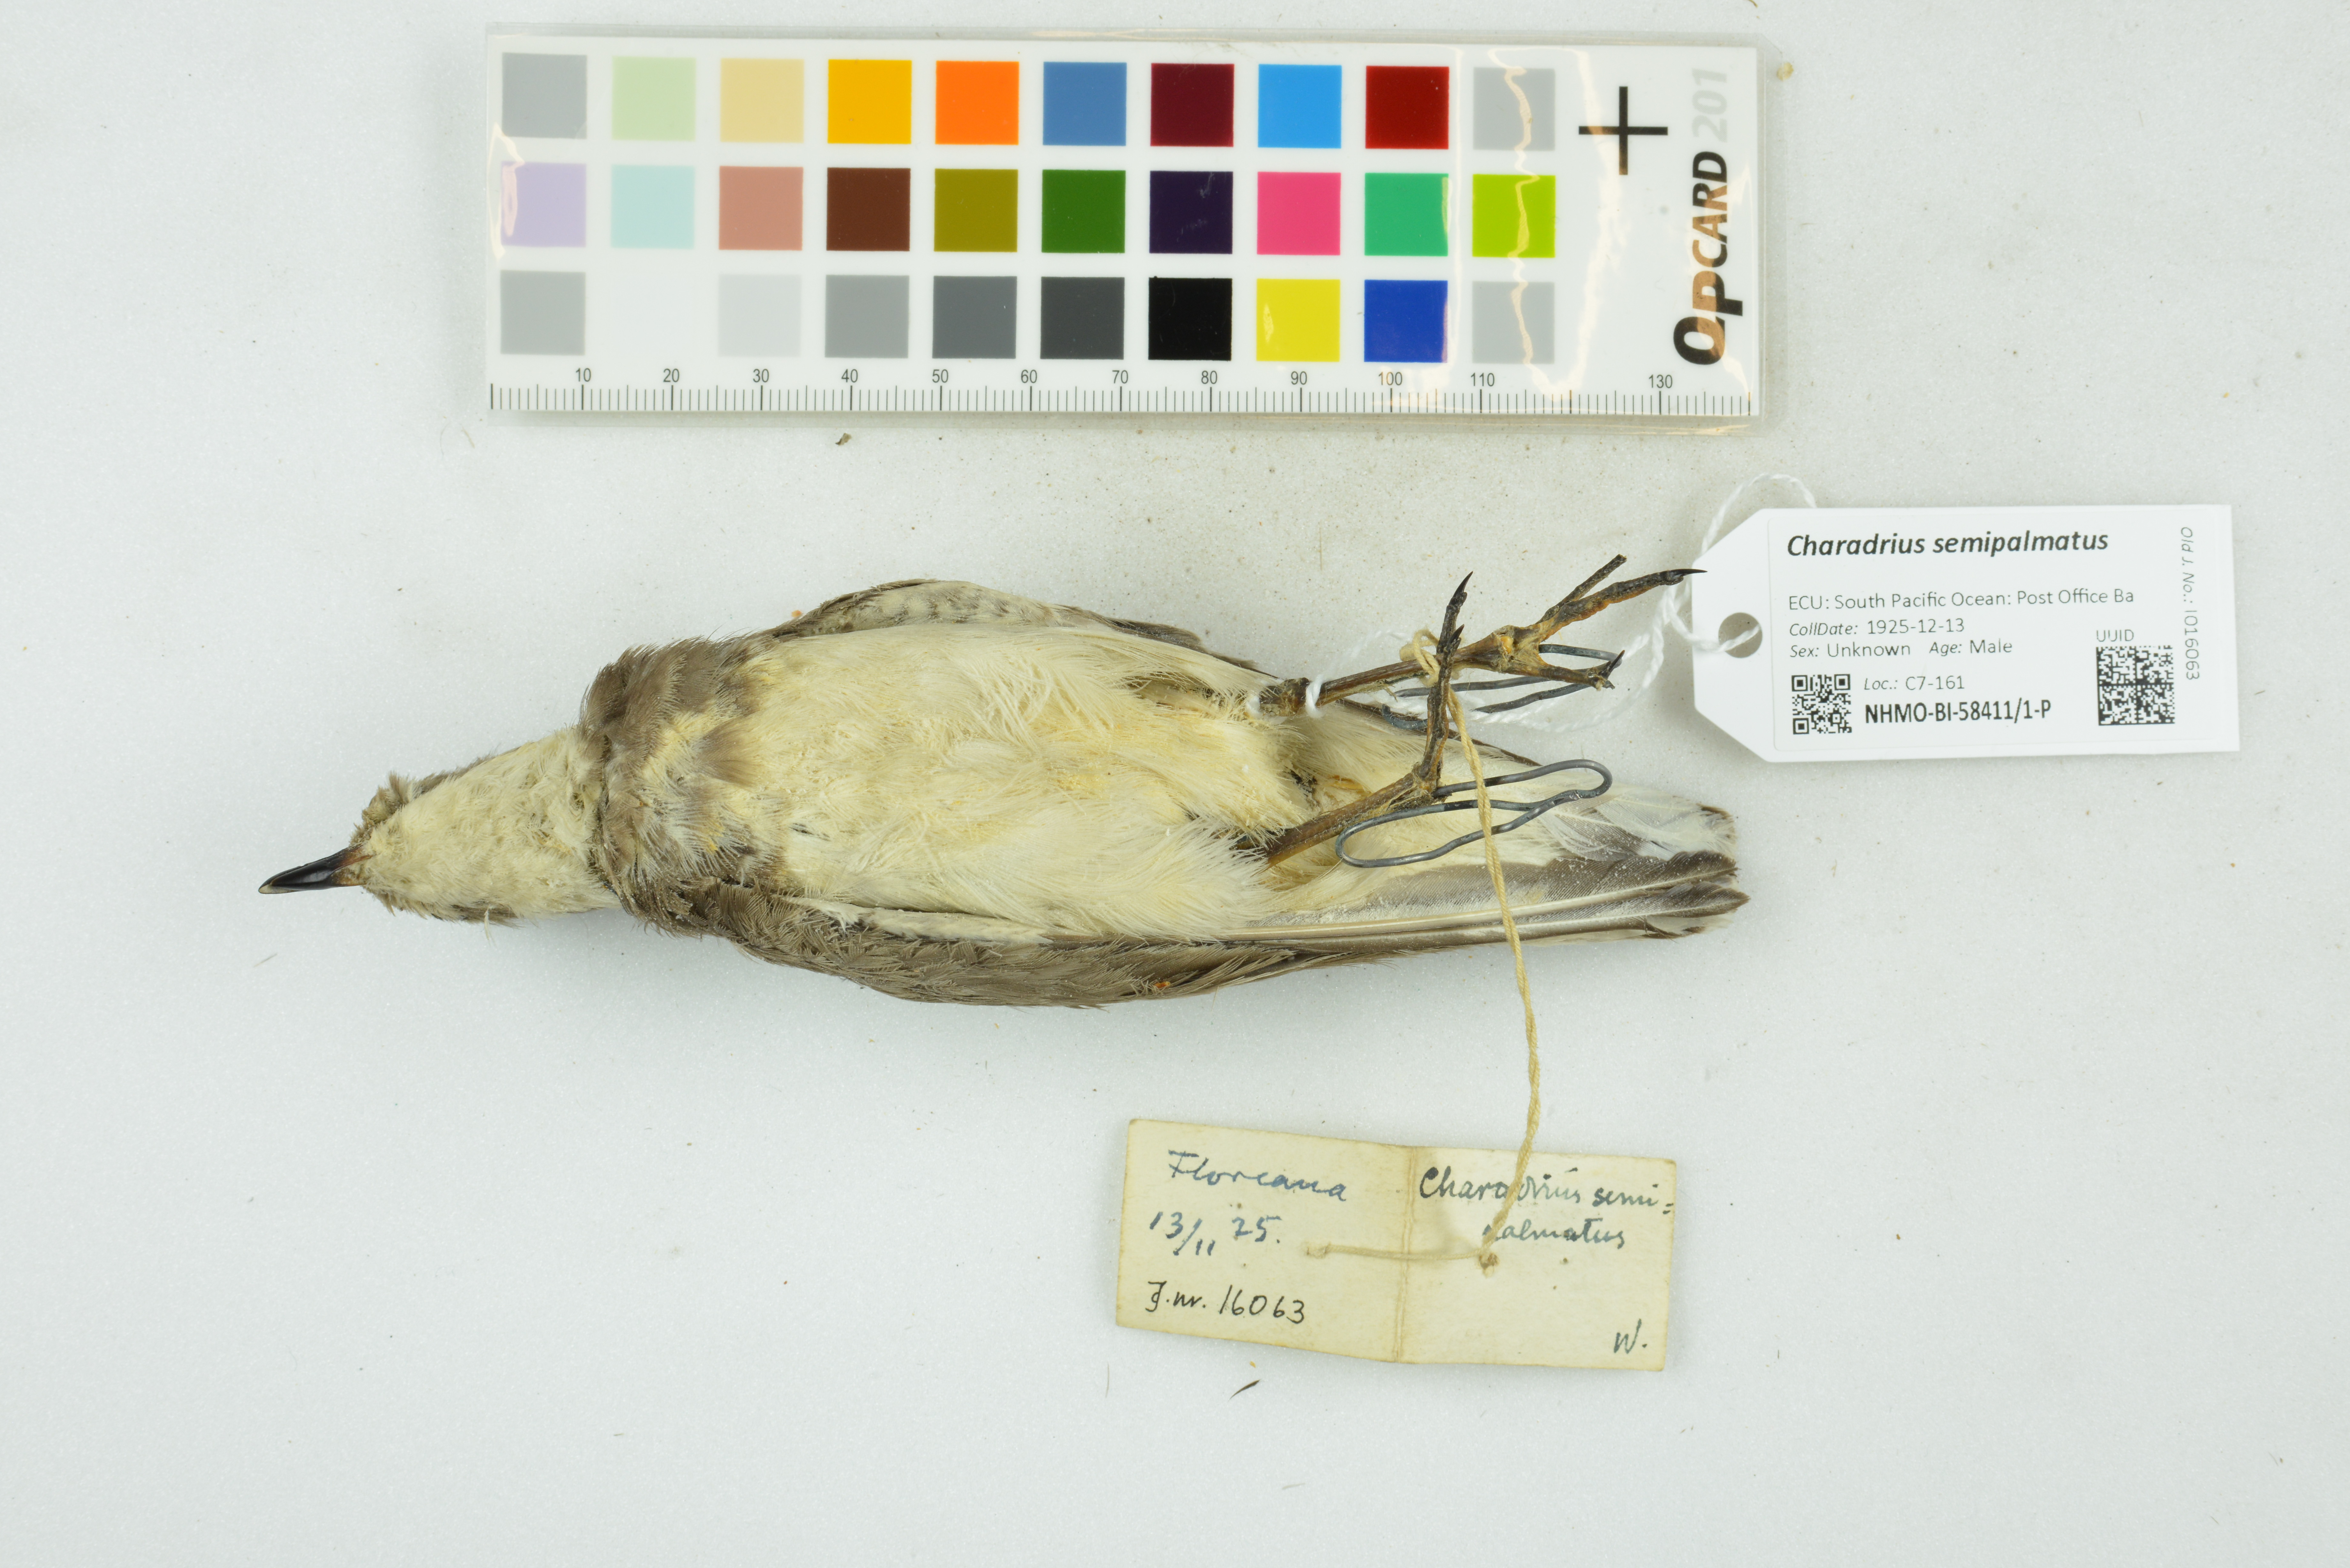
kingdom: Animalia
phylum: Chordata
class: Aves
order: Charadriiformes
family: Charadriidae
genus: Charadrius
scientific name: Charadrius semipalmatus
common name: Semipalmated plover
